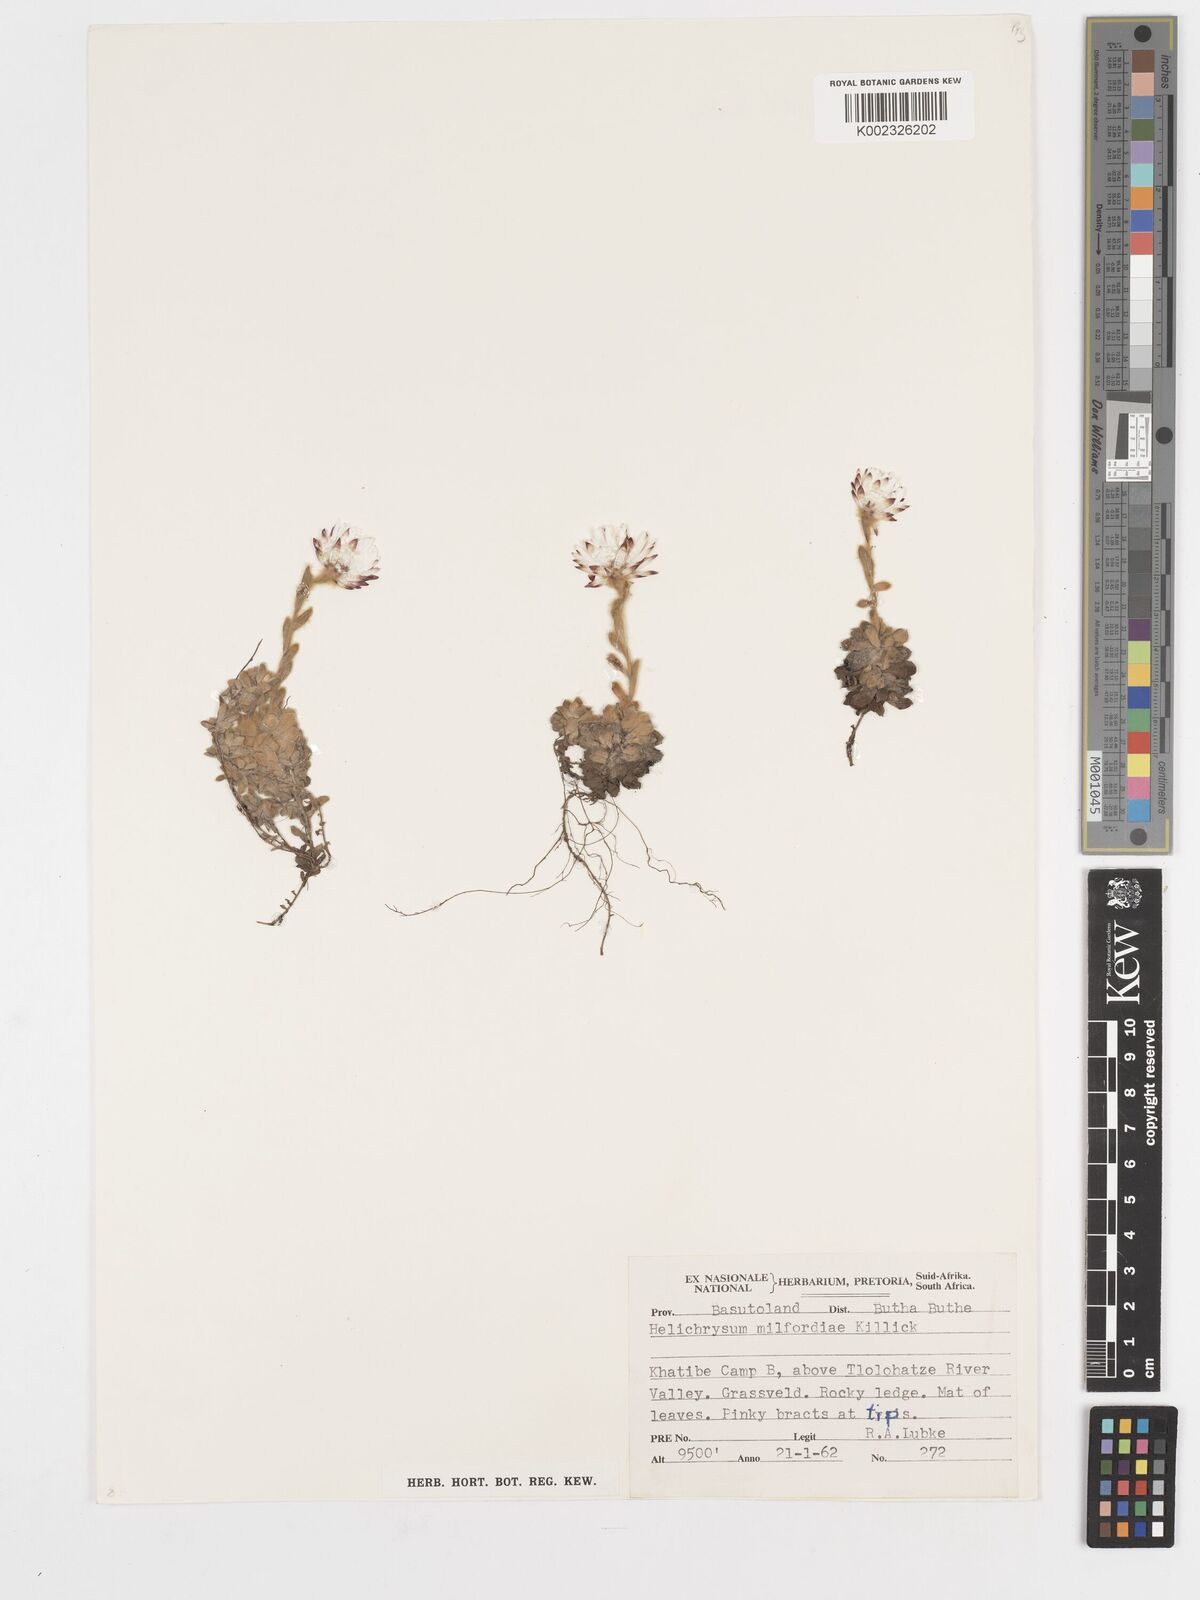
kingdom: Plantae
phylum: Tracheophyta
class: Magnoliopsida
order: Asterales
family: Asteraceae
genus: Helichrysum
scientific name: Helichrysum milfordiae
